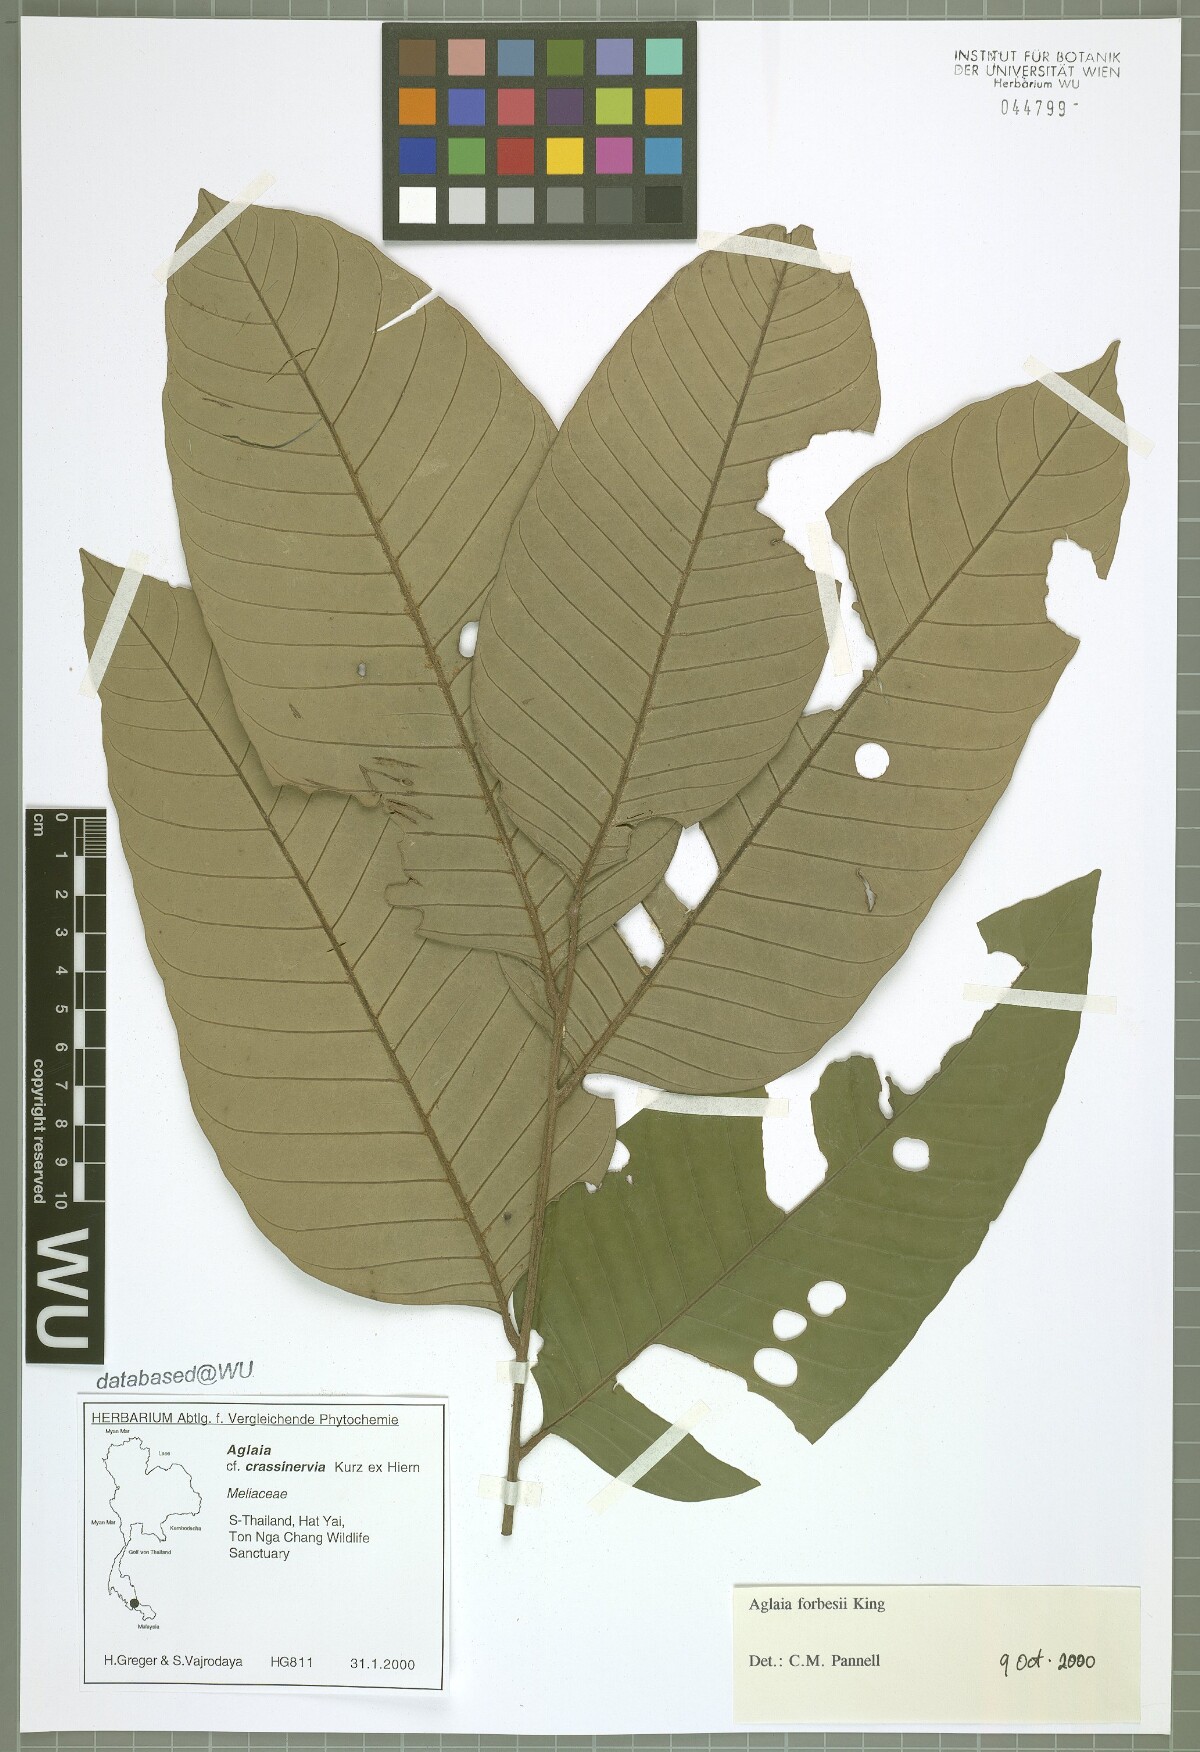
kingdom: Plantae
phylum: Tracheophyta
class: Magnoliopsida
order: Sapindales
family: Meliaceae
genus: Aglaia
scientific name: Aglaia forbesii
